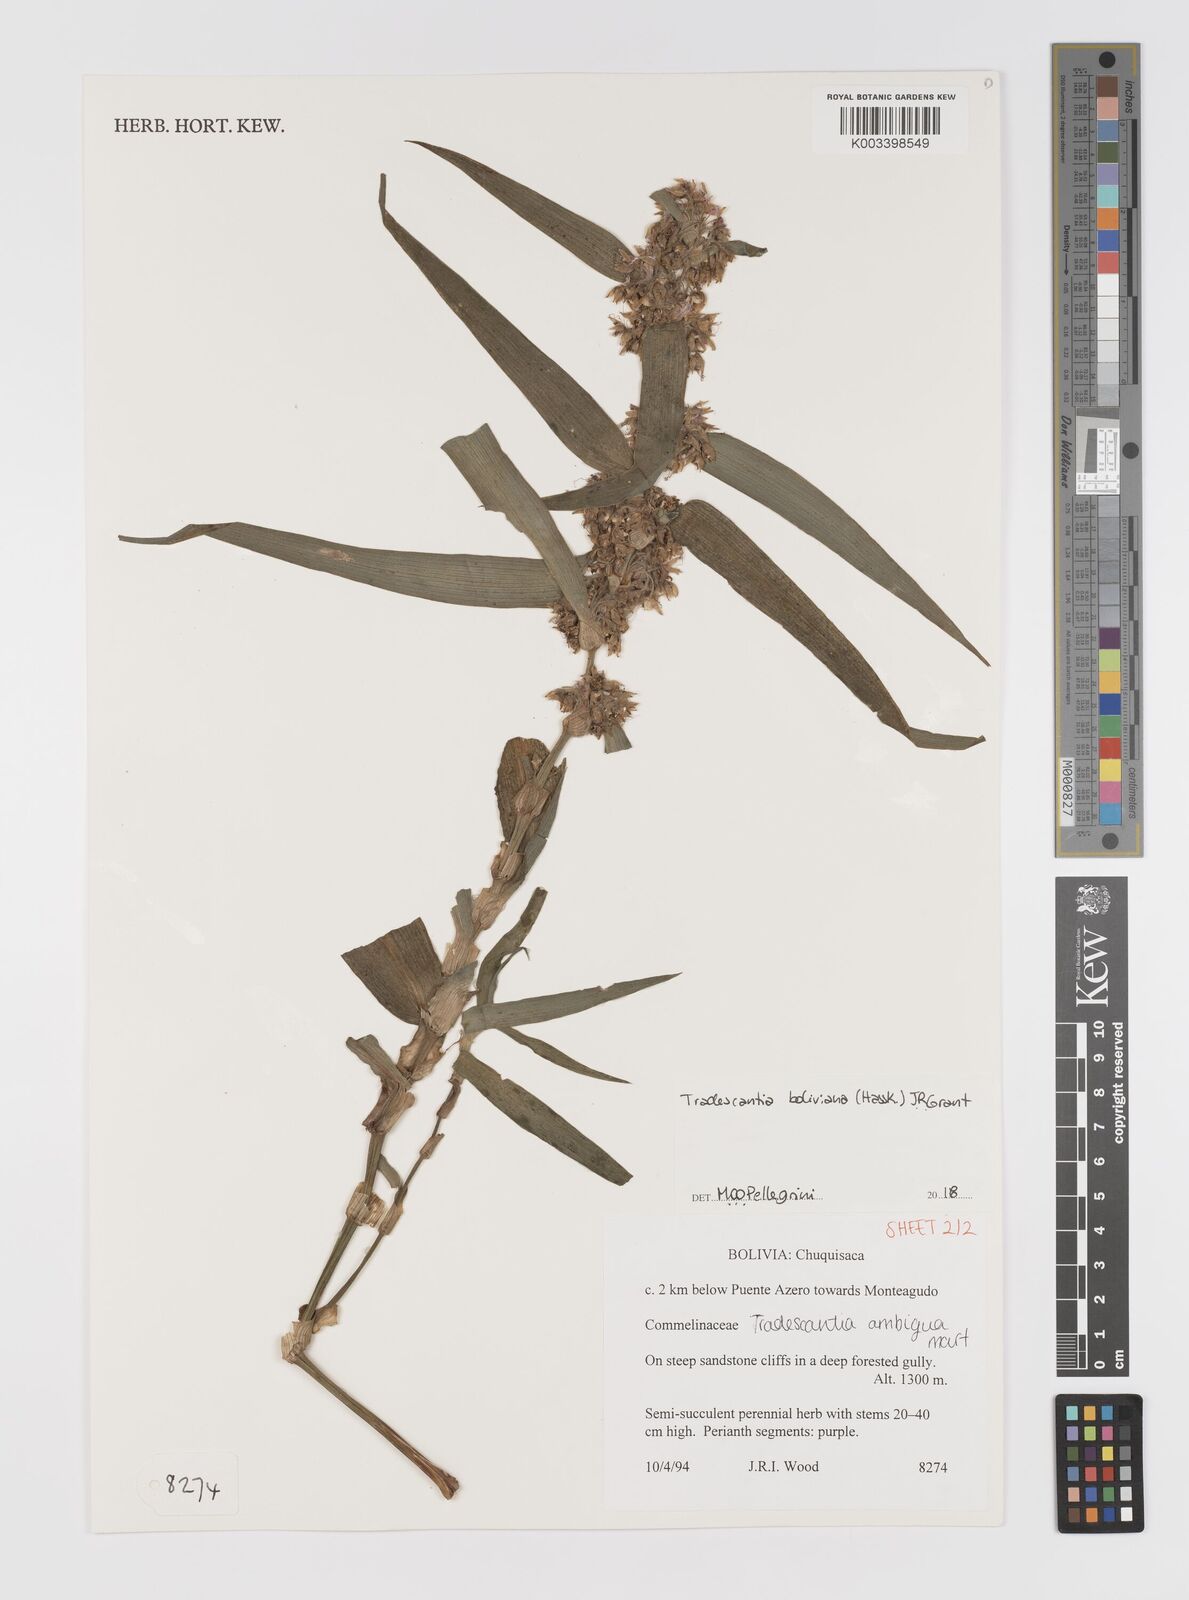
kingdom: Plantae
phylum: Tracheophyta
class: Liliopsida
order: Commelinales
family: Commelinaceae
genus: Tradescantia
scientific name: Tradescantia boliviana
